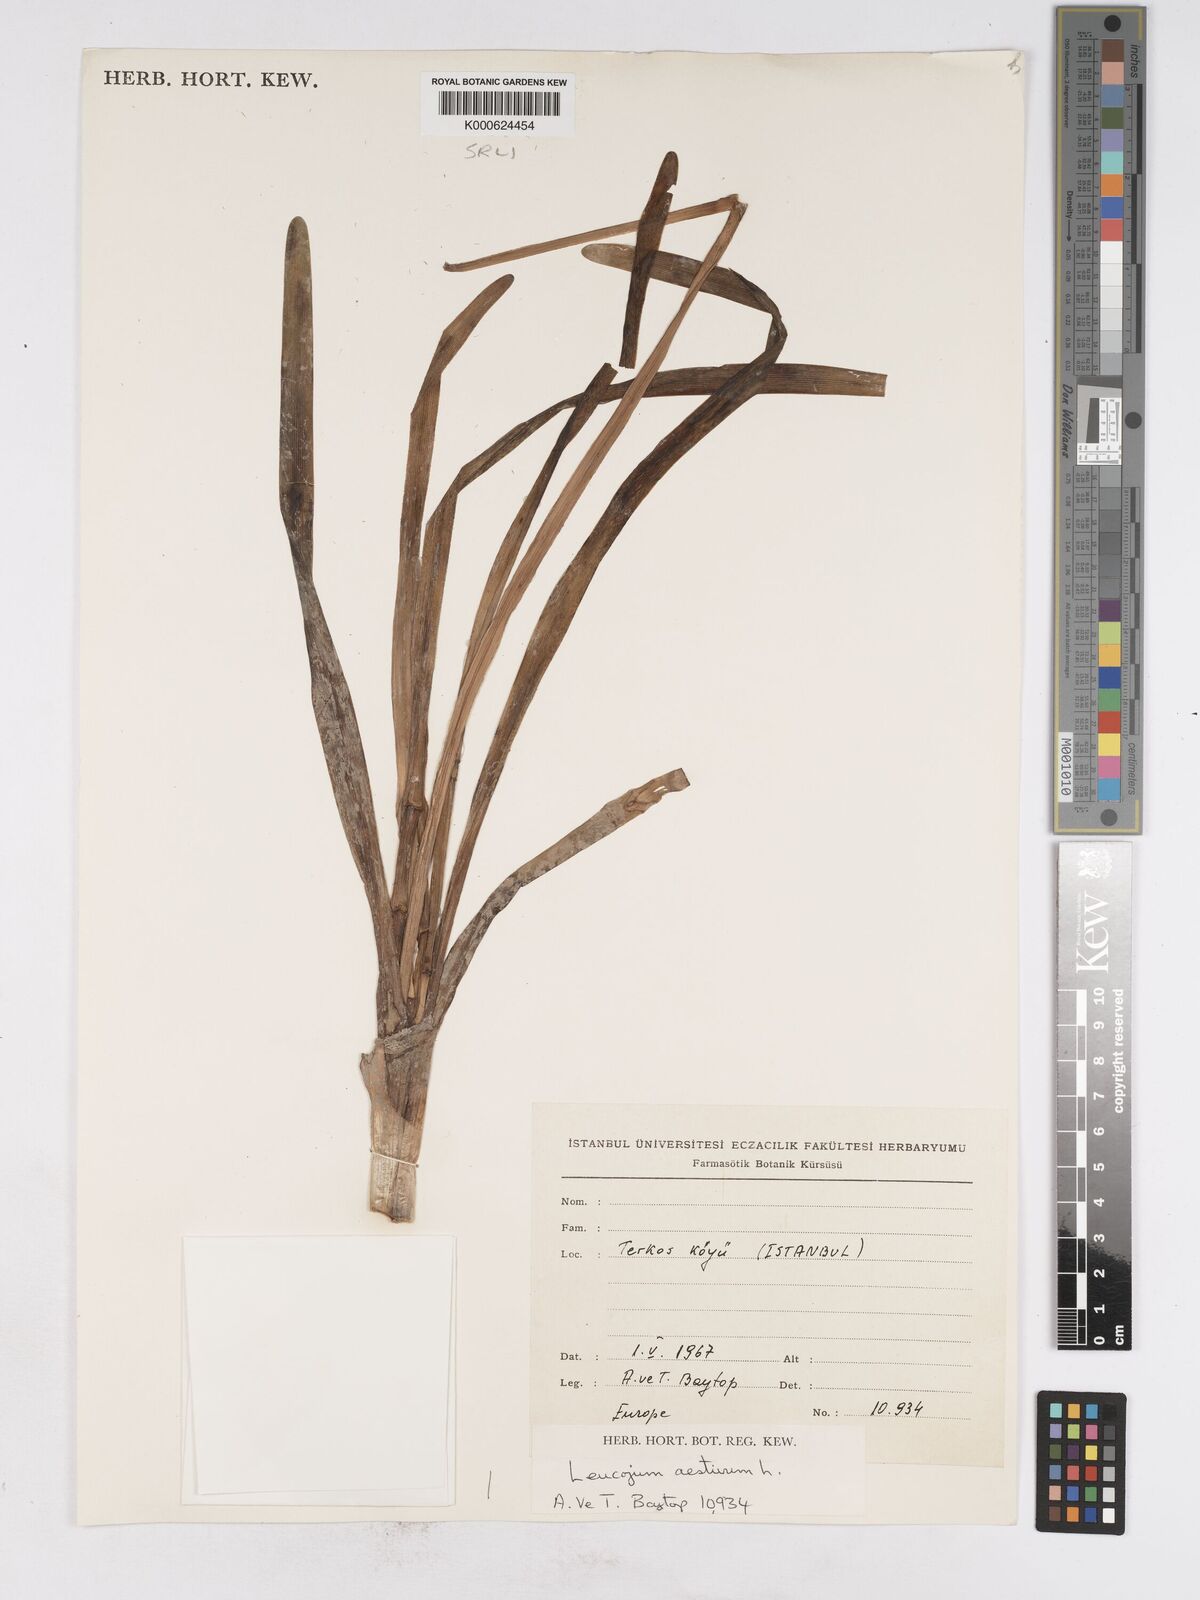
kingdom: Plantae
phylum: Tracheophyta
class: Liliopsida
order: Asparagales
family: Amaryllidaceae
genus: Leucojum
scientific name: Leucojum aestivum
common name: Summer snowflake
